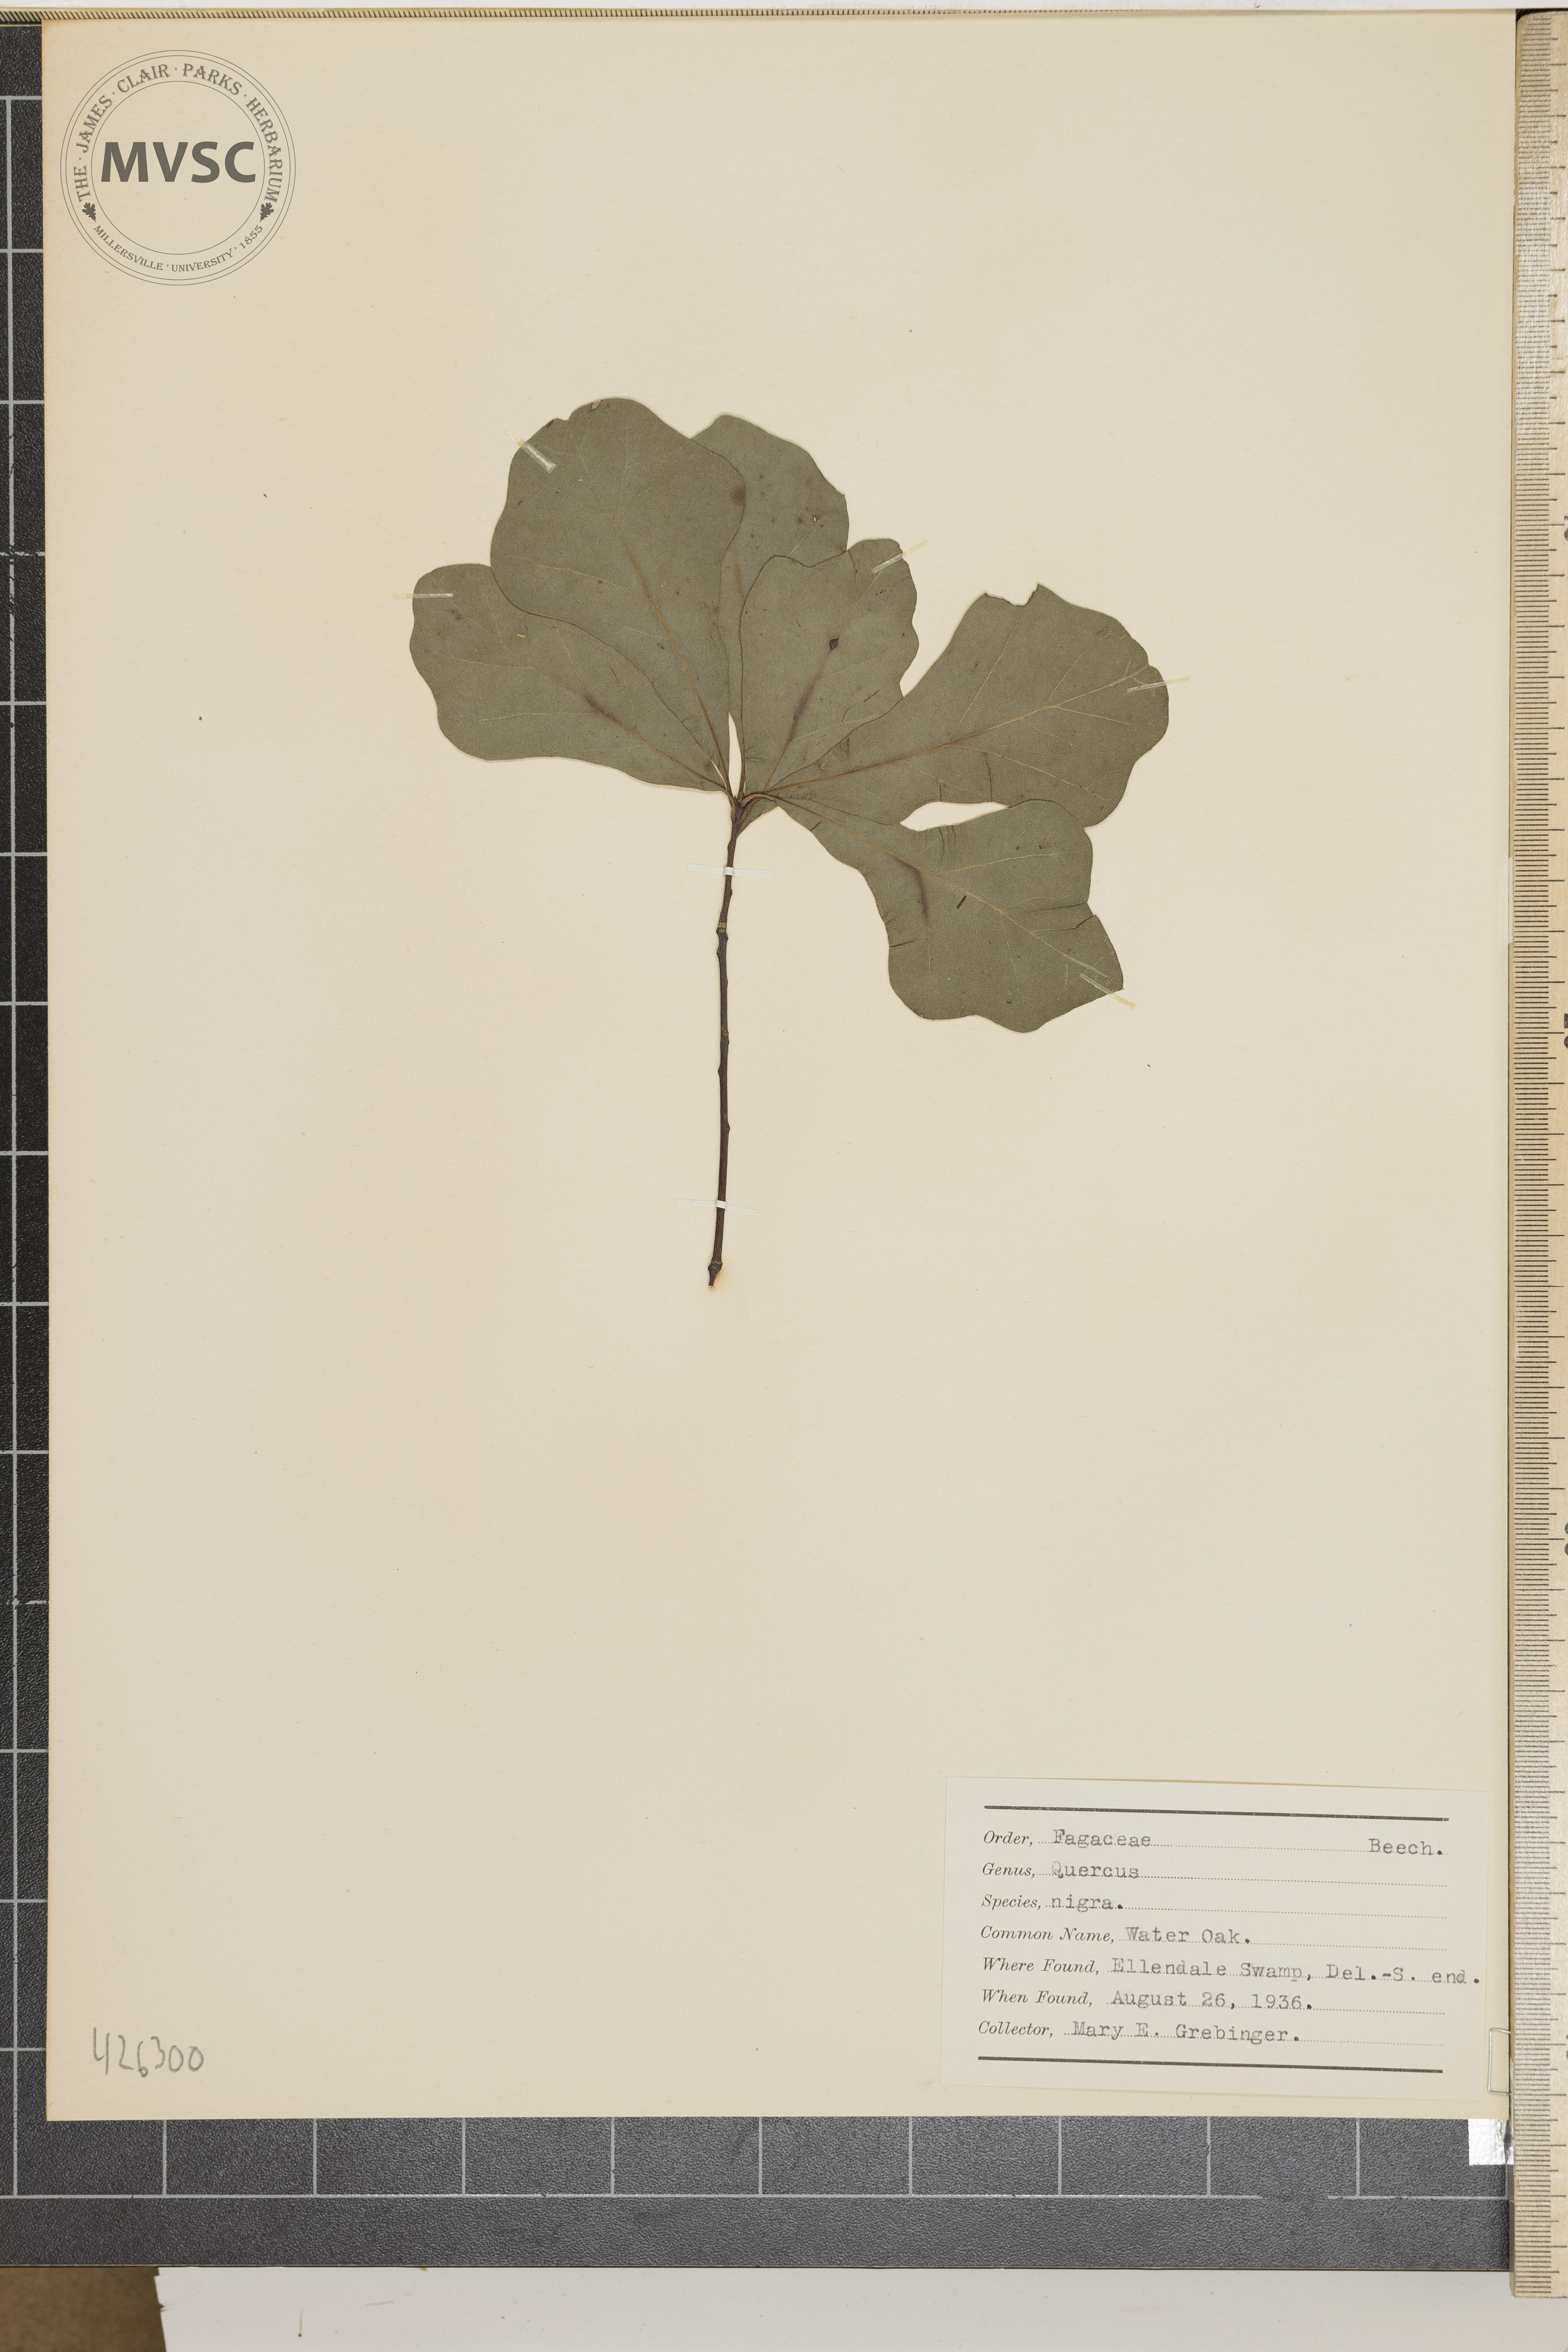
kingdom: Plantae
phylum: Tracheophyta
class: Magnoliopsida
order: Fagales
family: Fagaceae
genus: Quercus
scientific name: Quercus nigra
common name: Water oak
